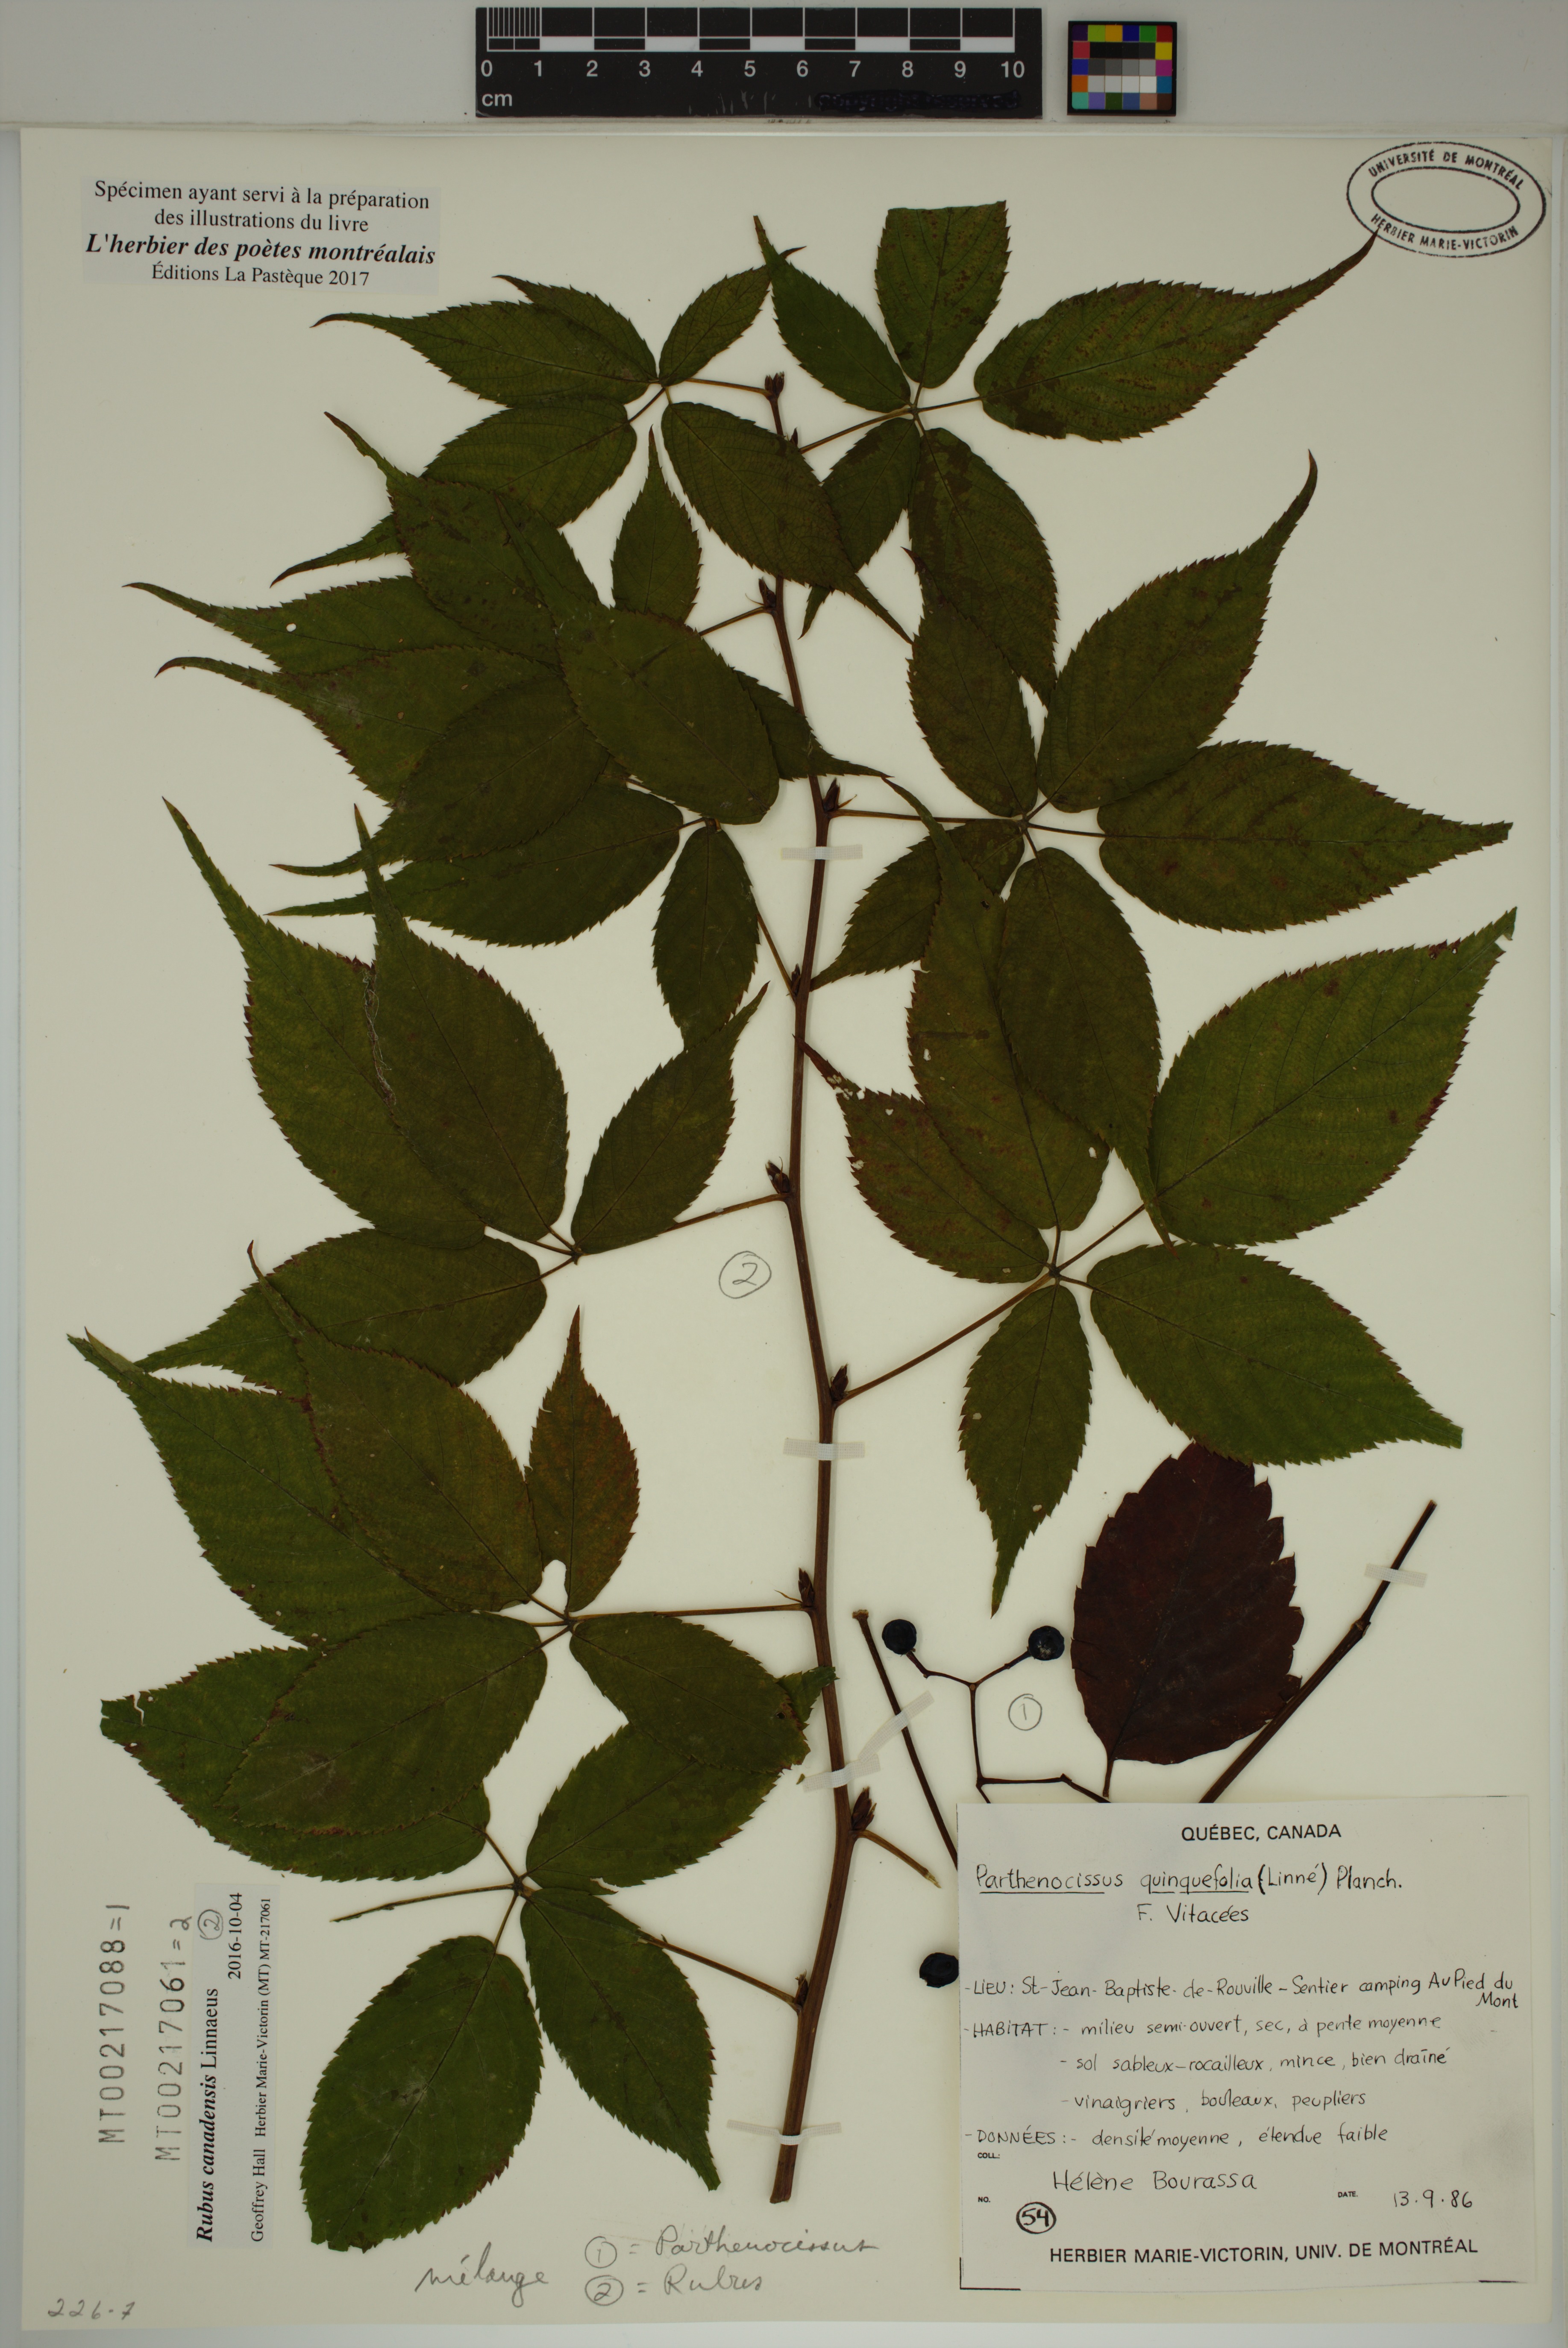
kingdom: Plantae
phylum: Tracheophyta
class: Magnoliopsida
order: Rosales
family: Rosaceae
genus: Rubus
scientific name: Rubus canadensis
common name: Smooth blackberry
